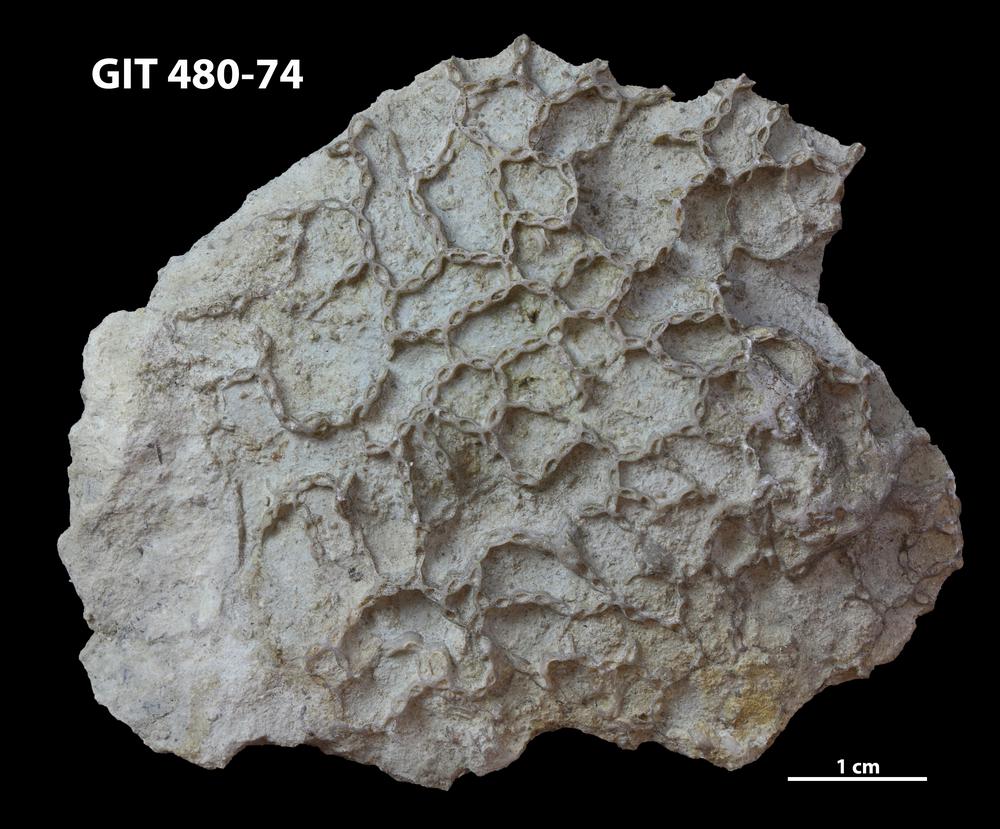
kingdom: Animalia
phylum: Cnidaria
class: Anthozoa
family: Cateniporidae
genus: Catenipora
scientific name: Catenipora
